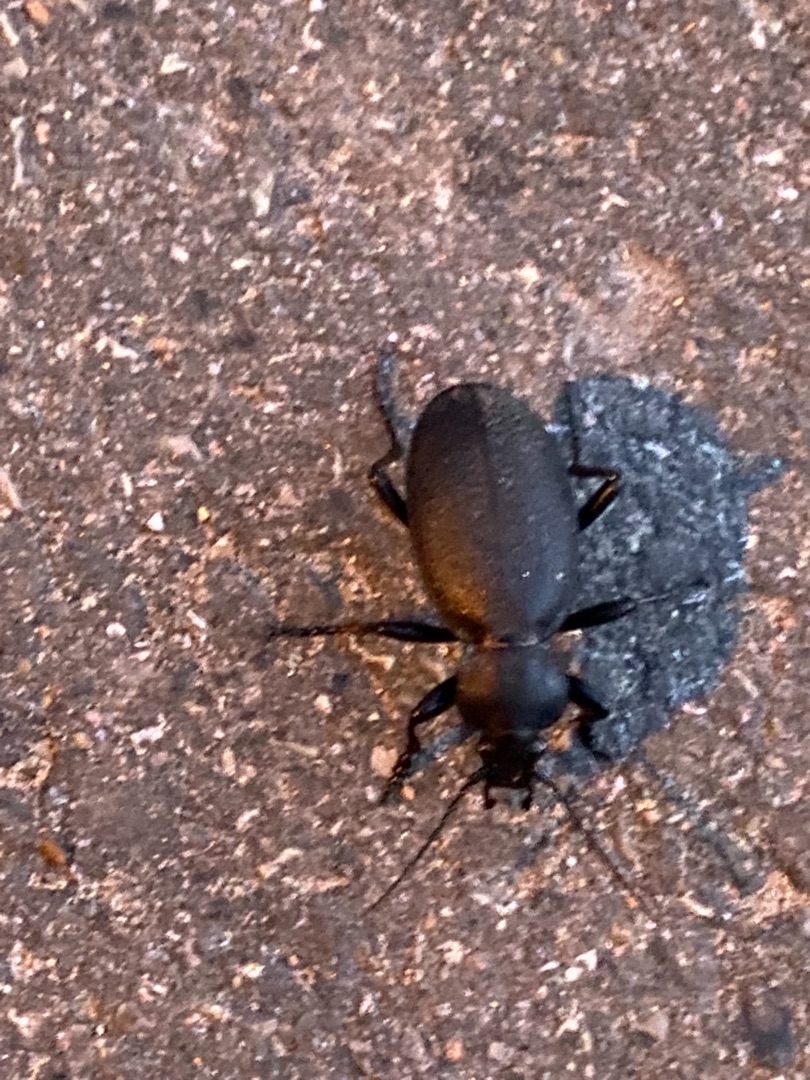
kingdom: Animalia
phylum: Arthropoda
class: Insecta
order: Coleoptera
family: Carabidae
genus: Carabus
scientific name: Carabus coriaceus
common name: Læderløber
